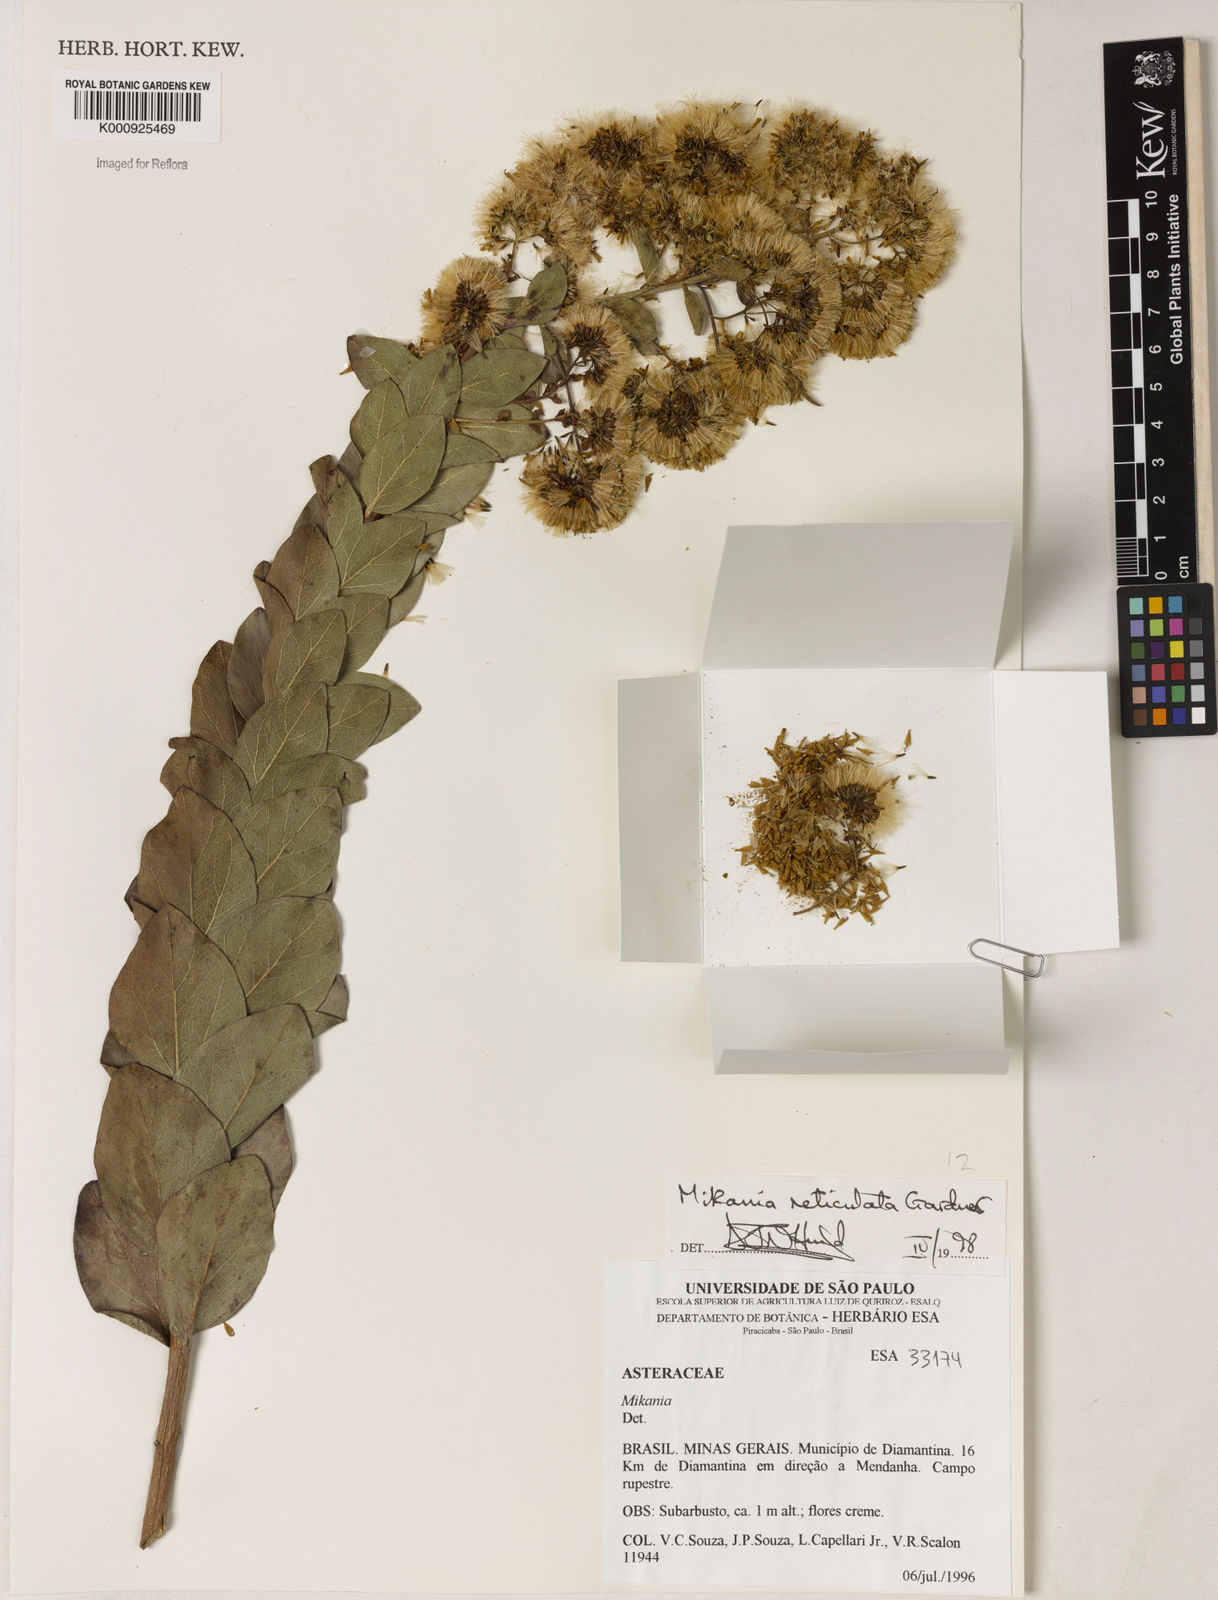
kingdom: Plantae
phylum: Tracheophyta
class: Magnoliopsida
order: Asterales
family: Asteraceae
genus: Mikania
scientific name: Mikania
